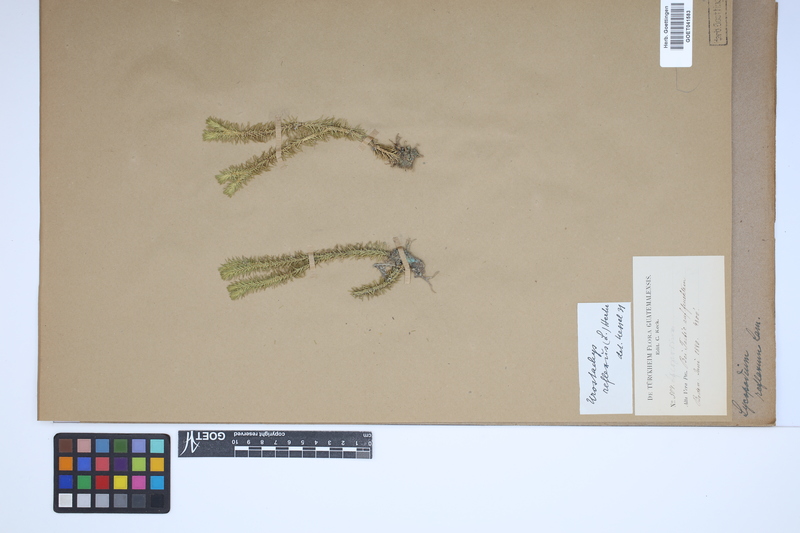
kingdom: Plantae
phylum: Tracheophyta
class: Lycopodiopsida
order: Lycopodiales
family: Lycopodiaceae
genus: Huperzia
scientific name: Huperzia lucidula
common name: Shining clubmoss
